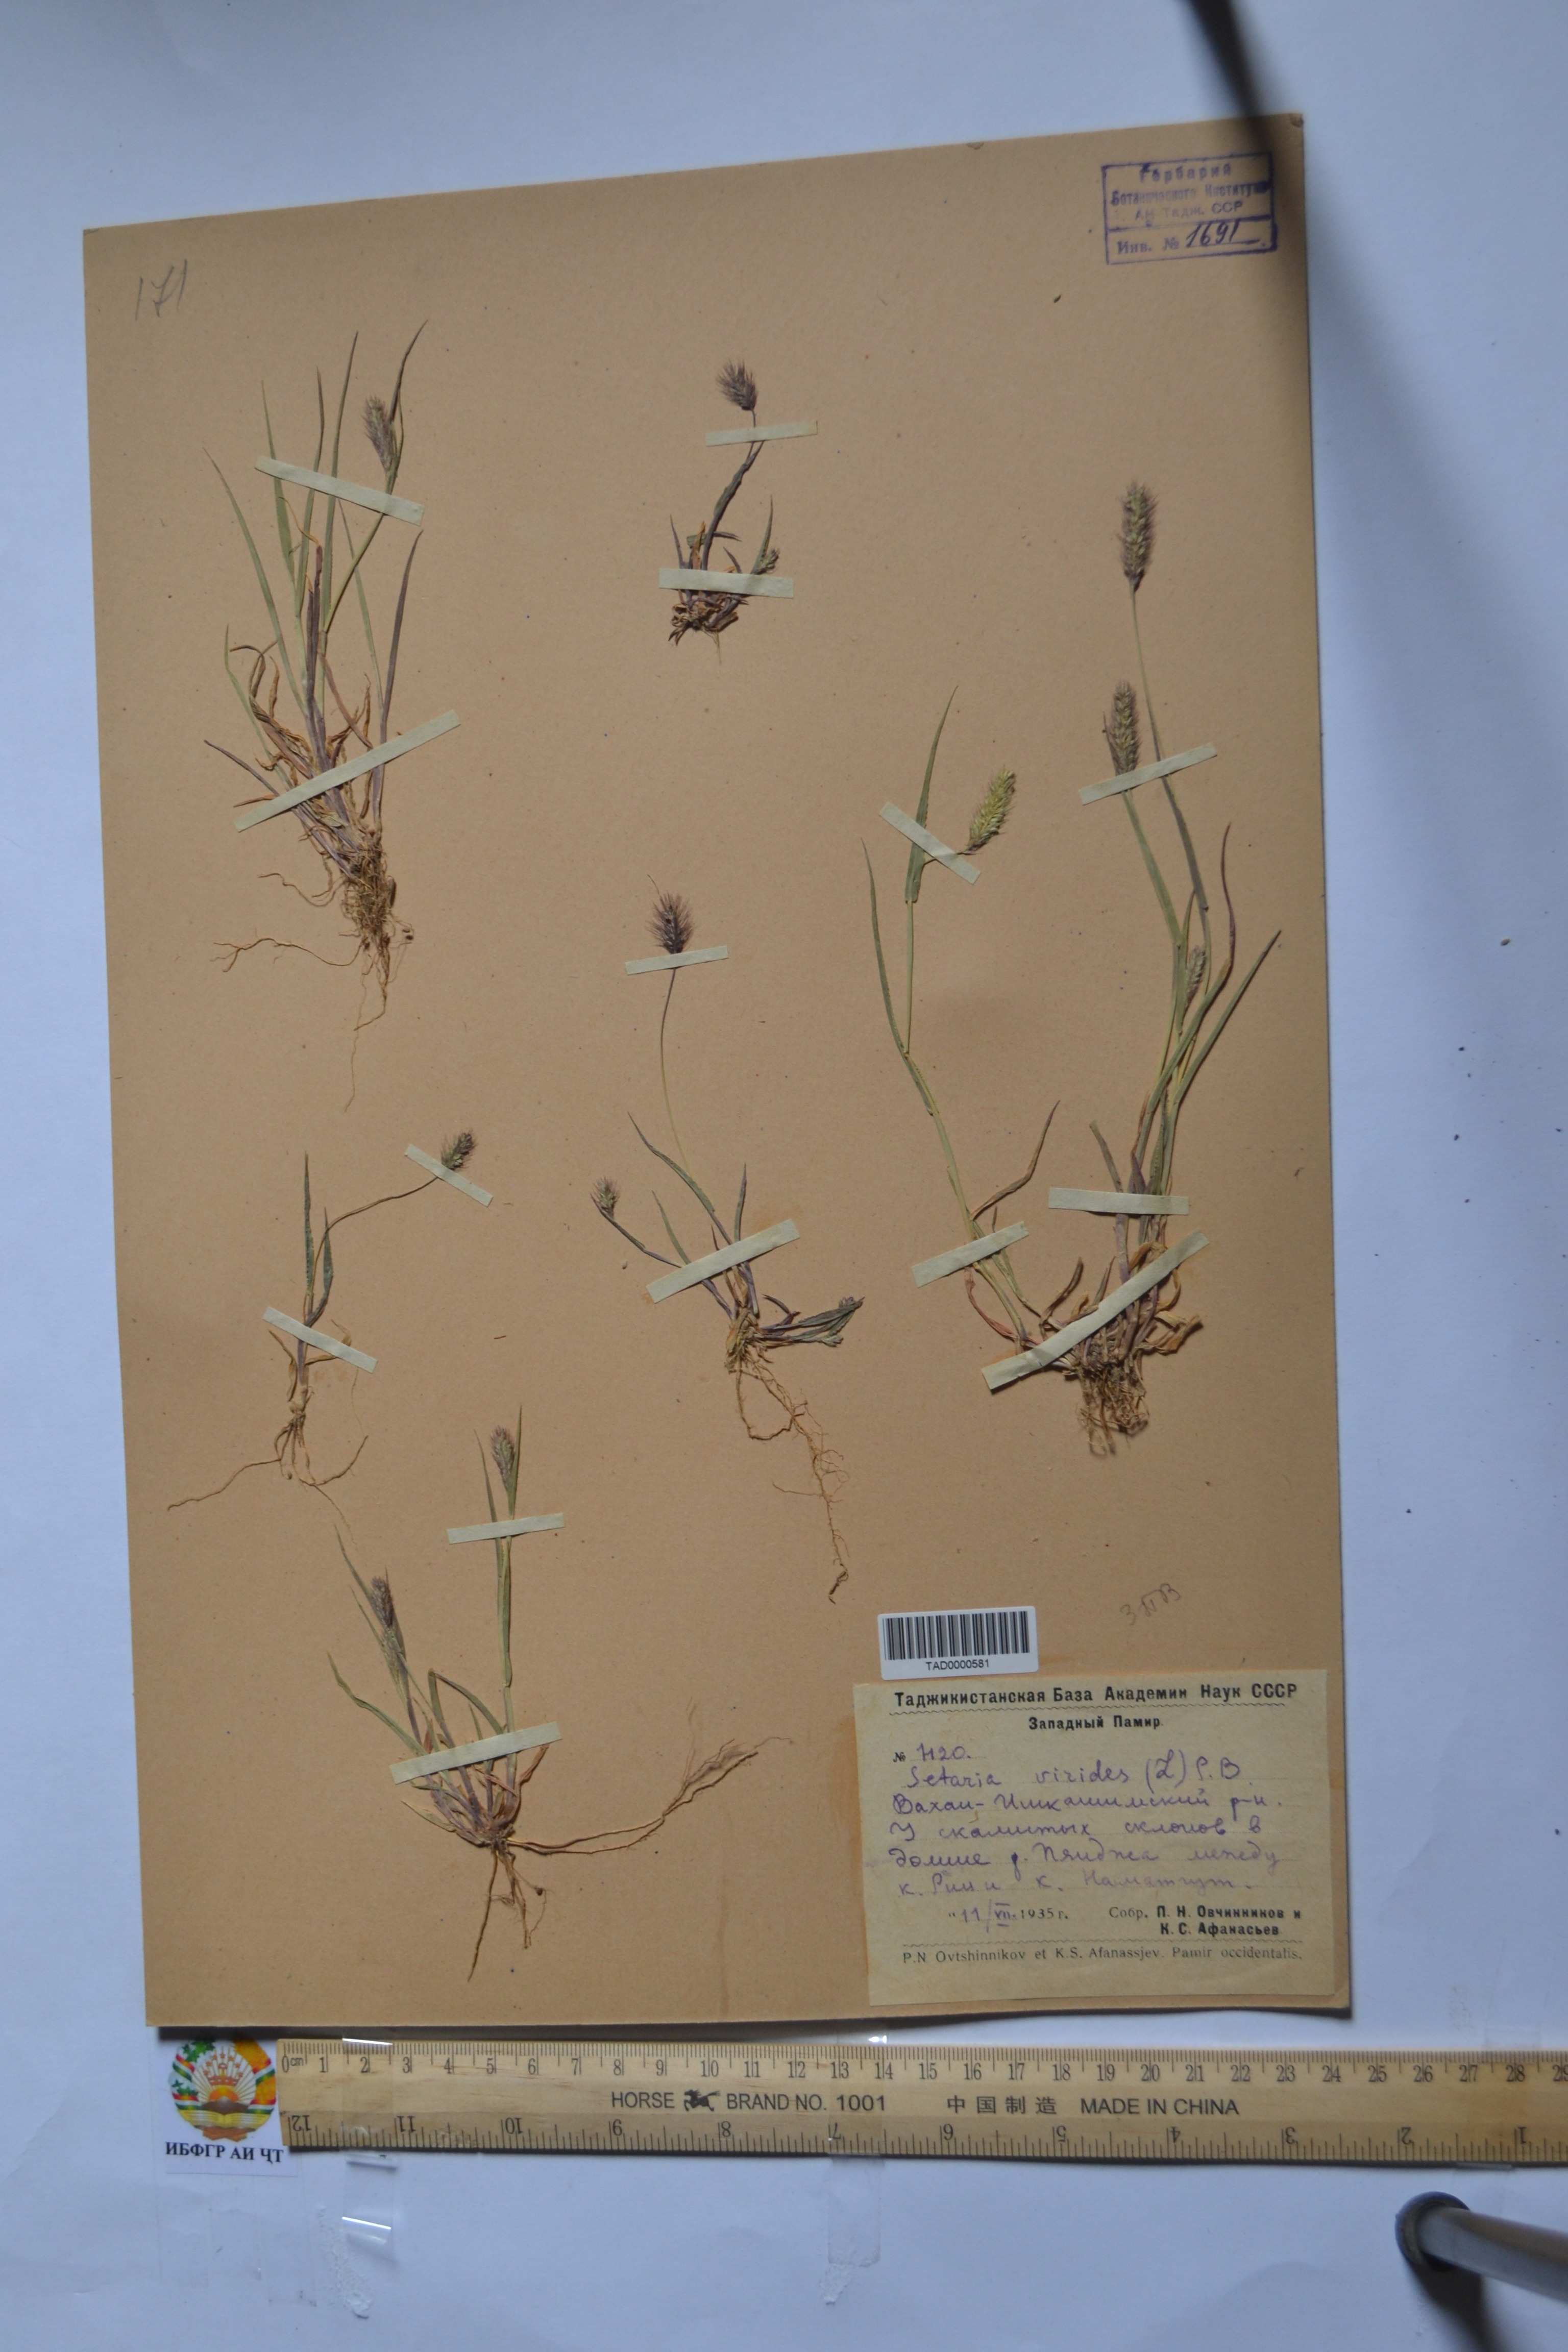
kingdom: Plantae
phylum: Tracheophyta
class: Liliopsida
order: Poales
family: Poaceae
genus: Setaria
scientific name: Setaria viridis
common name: Green bristlegrass
